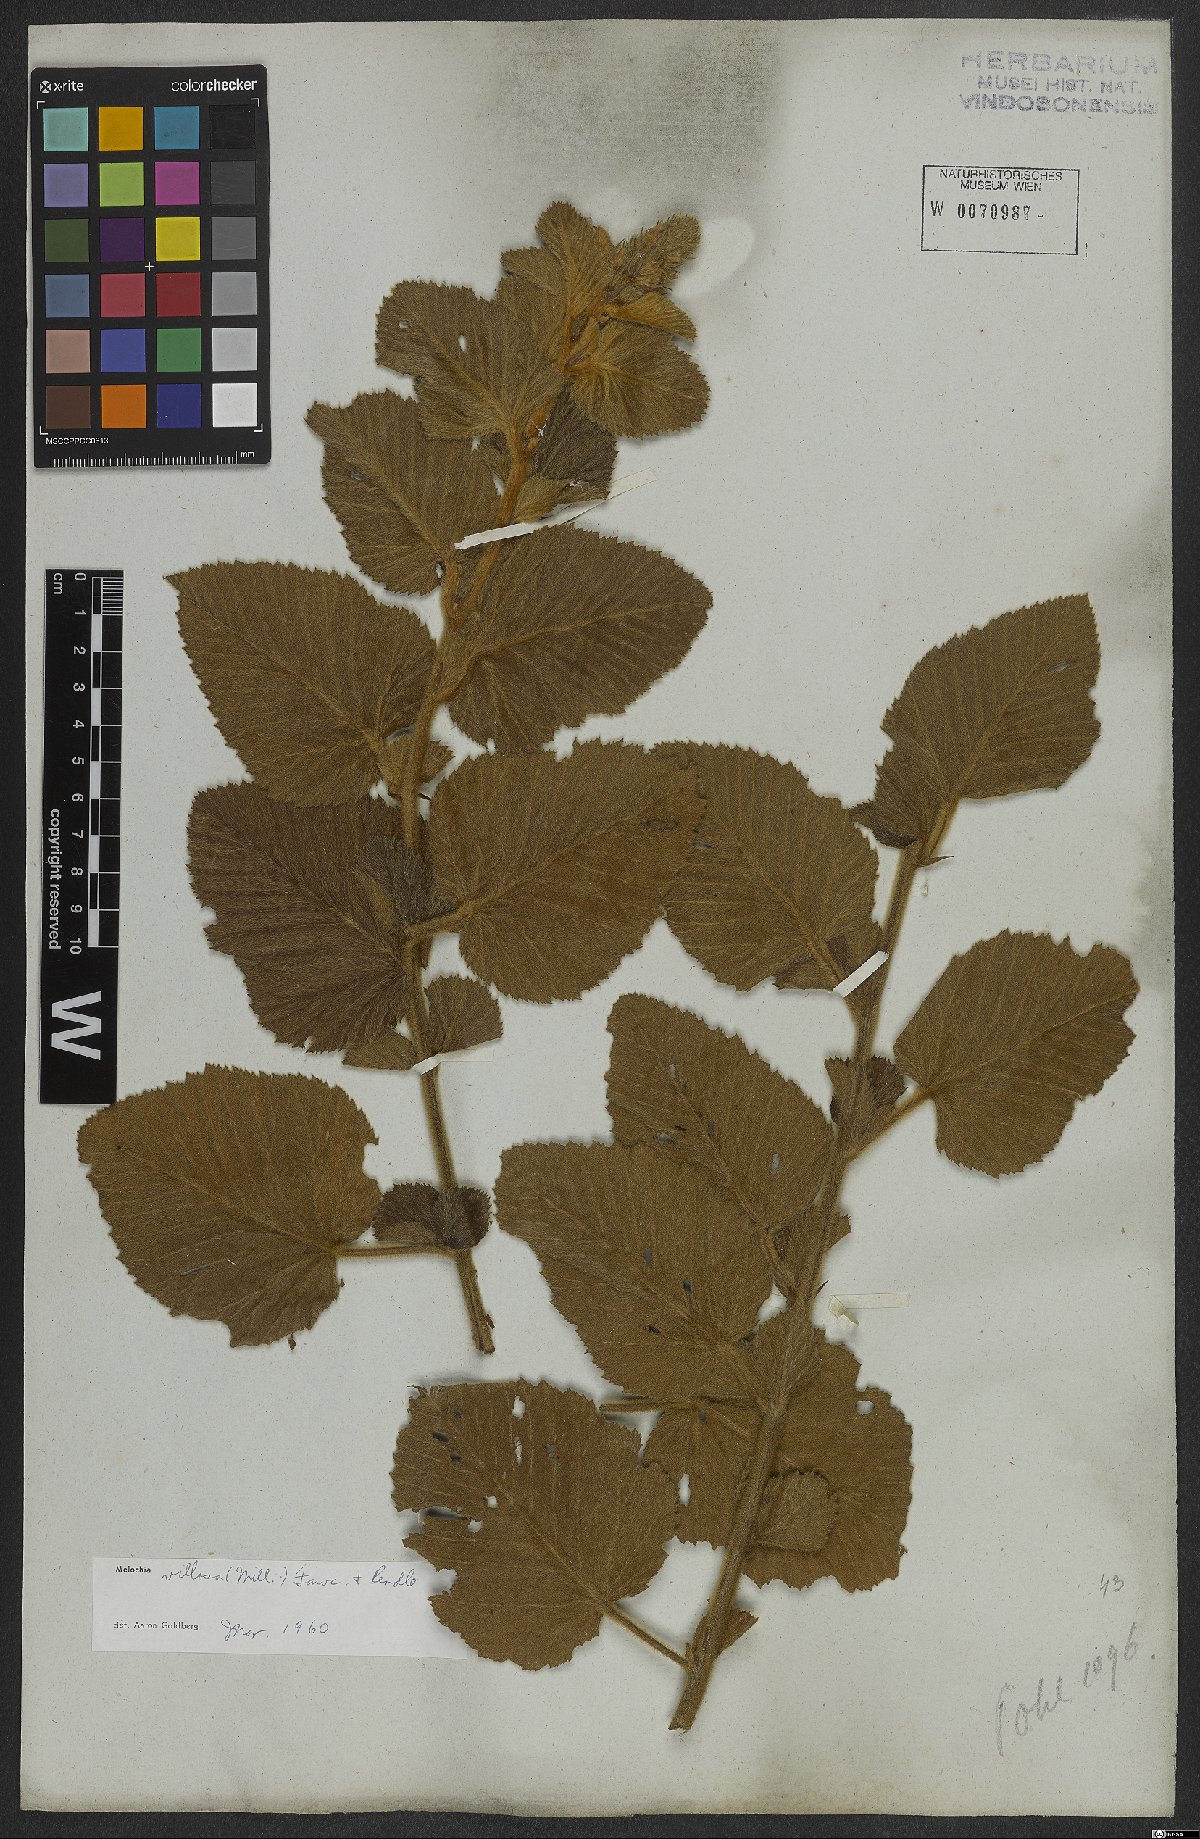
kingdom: Plantae
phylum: Tracheophyta
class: Magnoliopsida
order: Malvales
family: Malvaceae
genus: Melochia
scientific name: Melochia spicata
